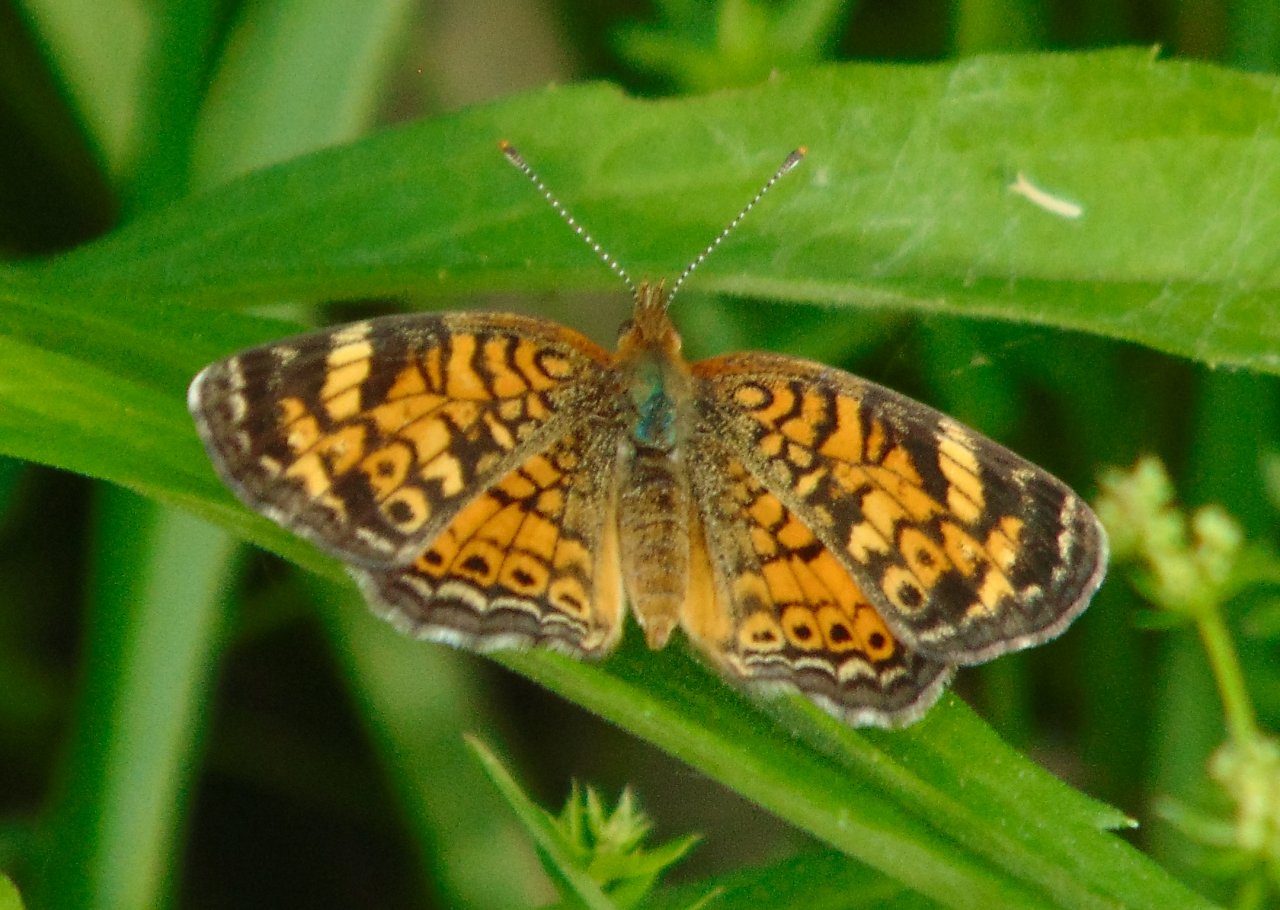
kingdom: Animalia
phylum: Arthropoda
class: Insecta
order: Lepidoptera
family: Nymphalidae
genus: Phyciodes
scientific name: Phyciodes tharos
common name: Pearl Crescent
